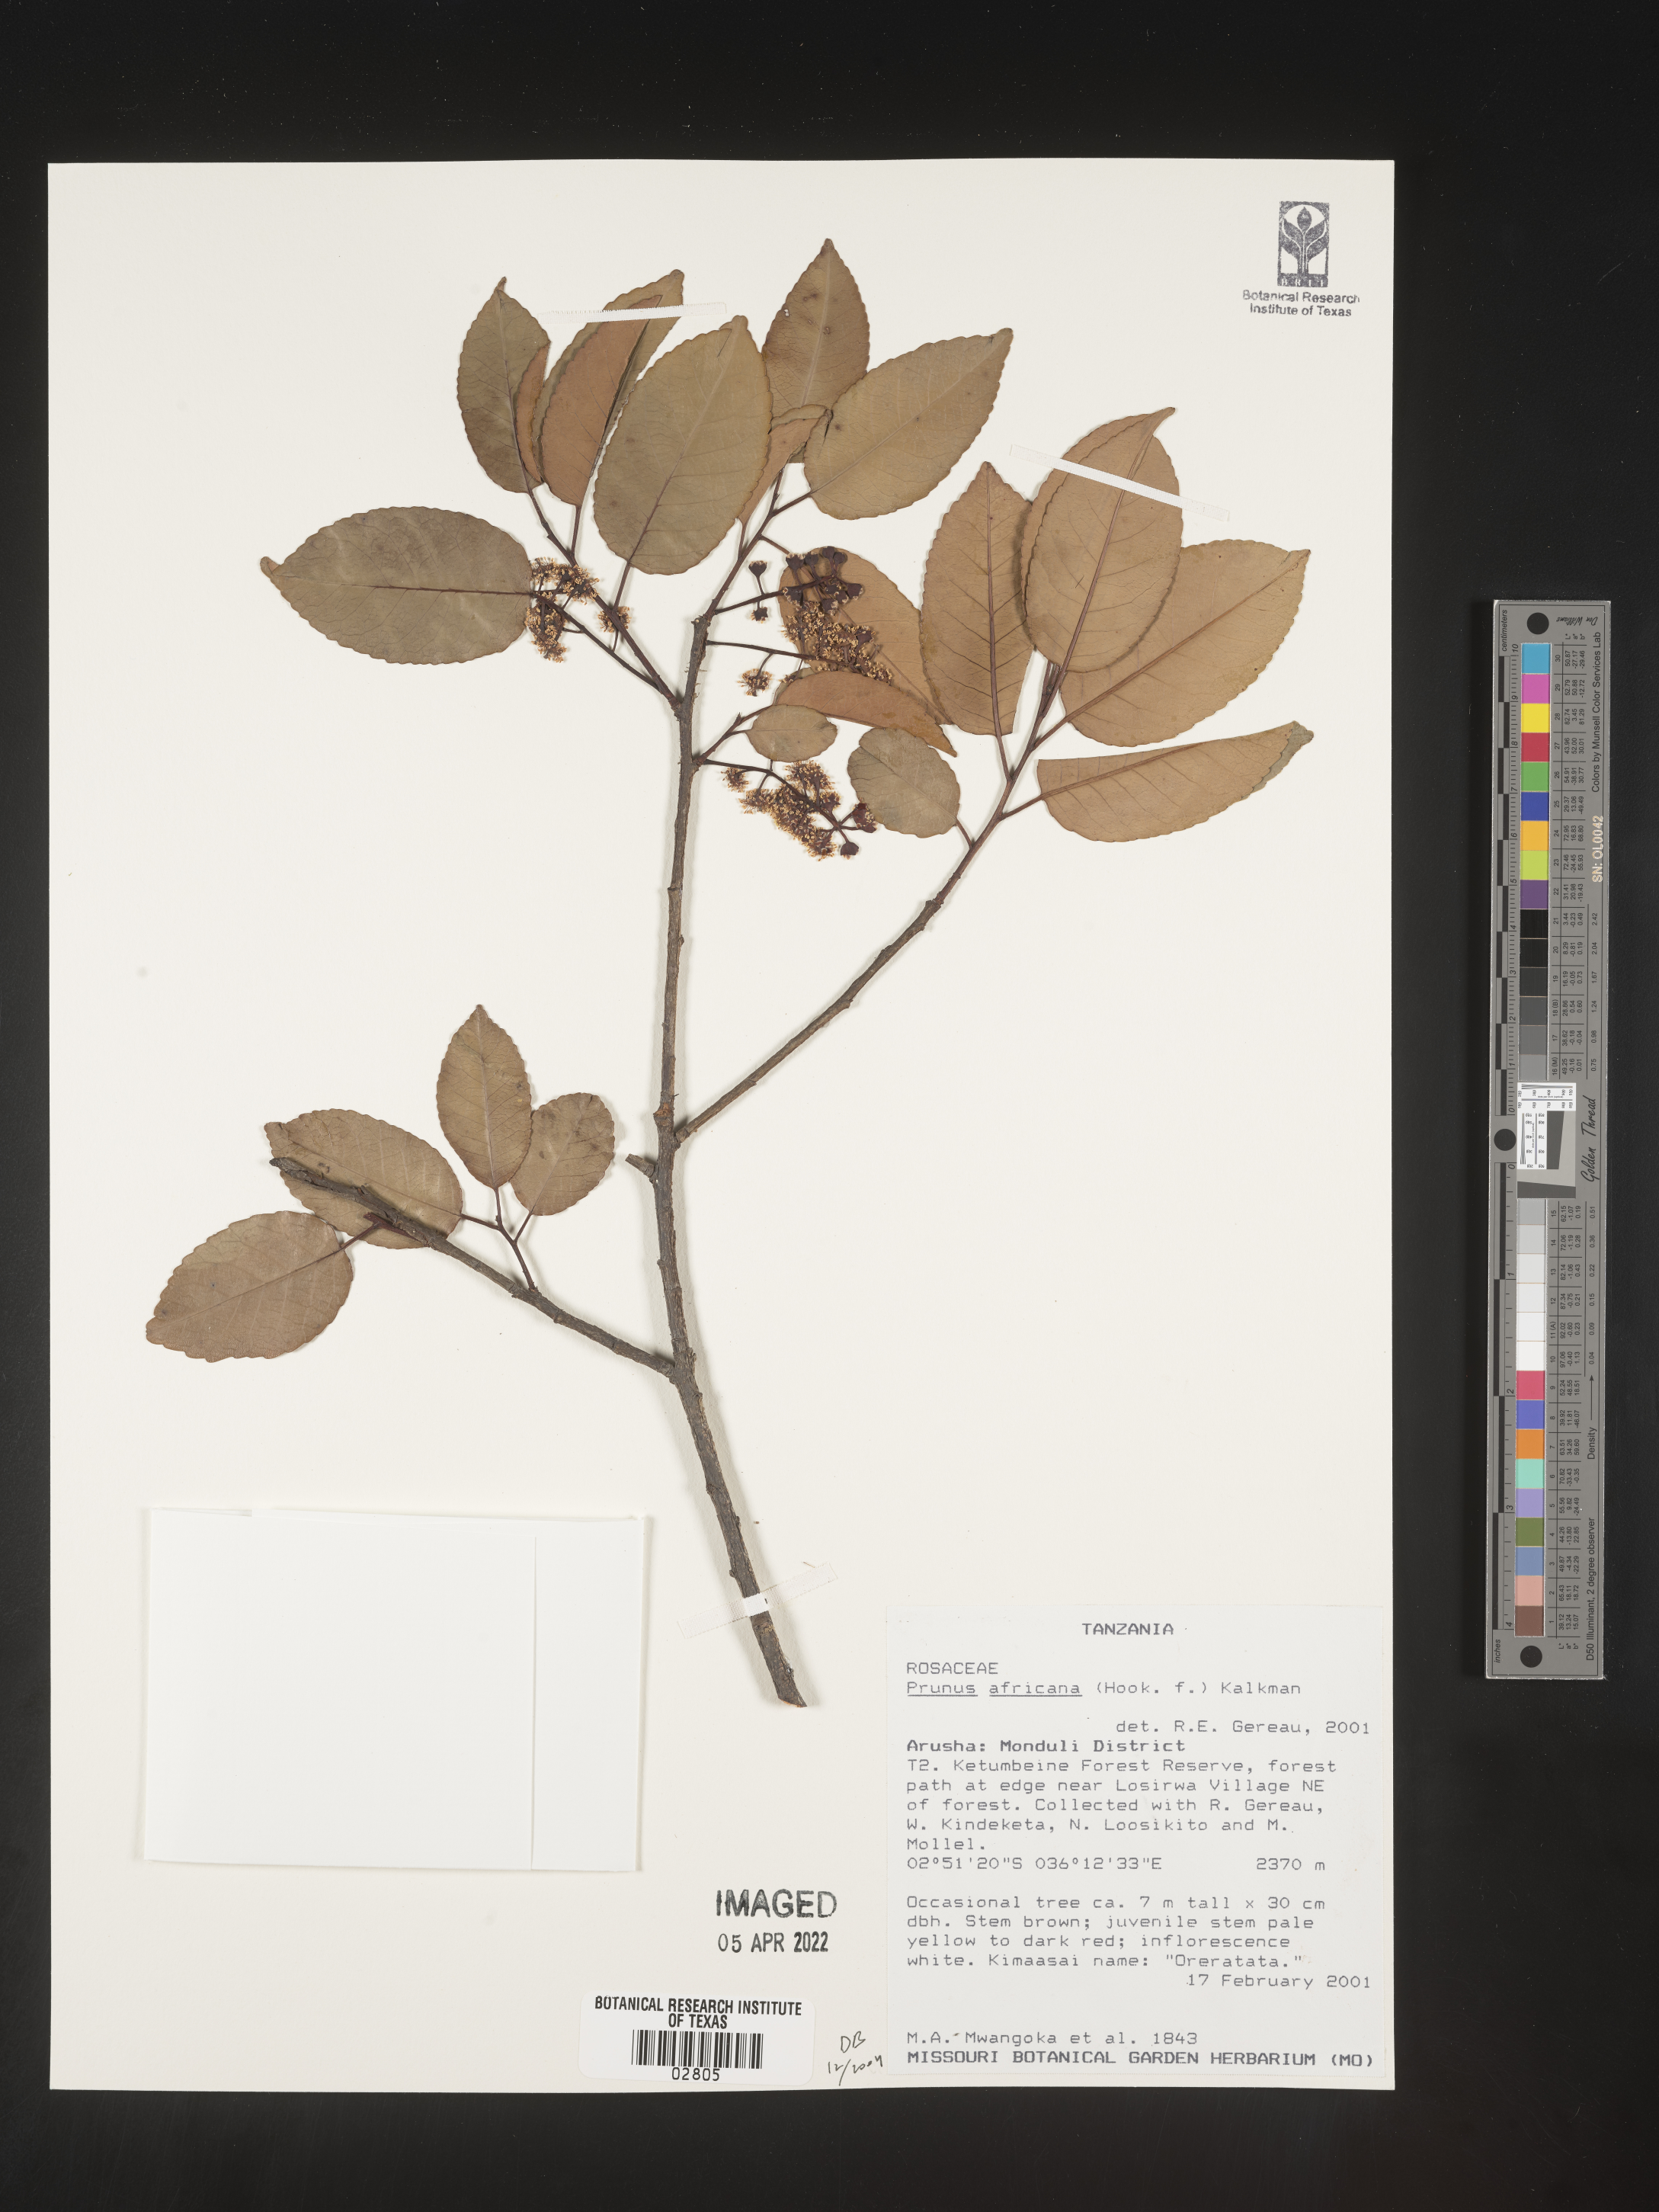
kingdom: Plantae
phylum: Tracheophyta
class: Magnoliopsida
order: Rosales
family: Rosaceae
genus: Prunus
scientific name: Prunus
